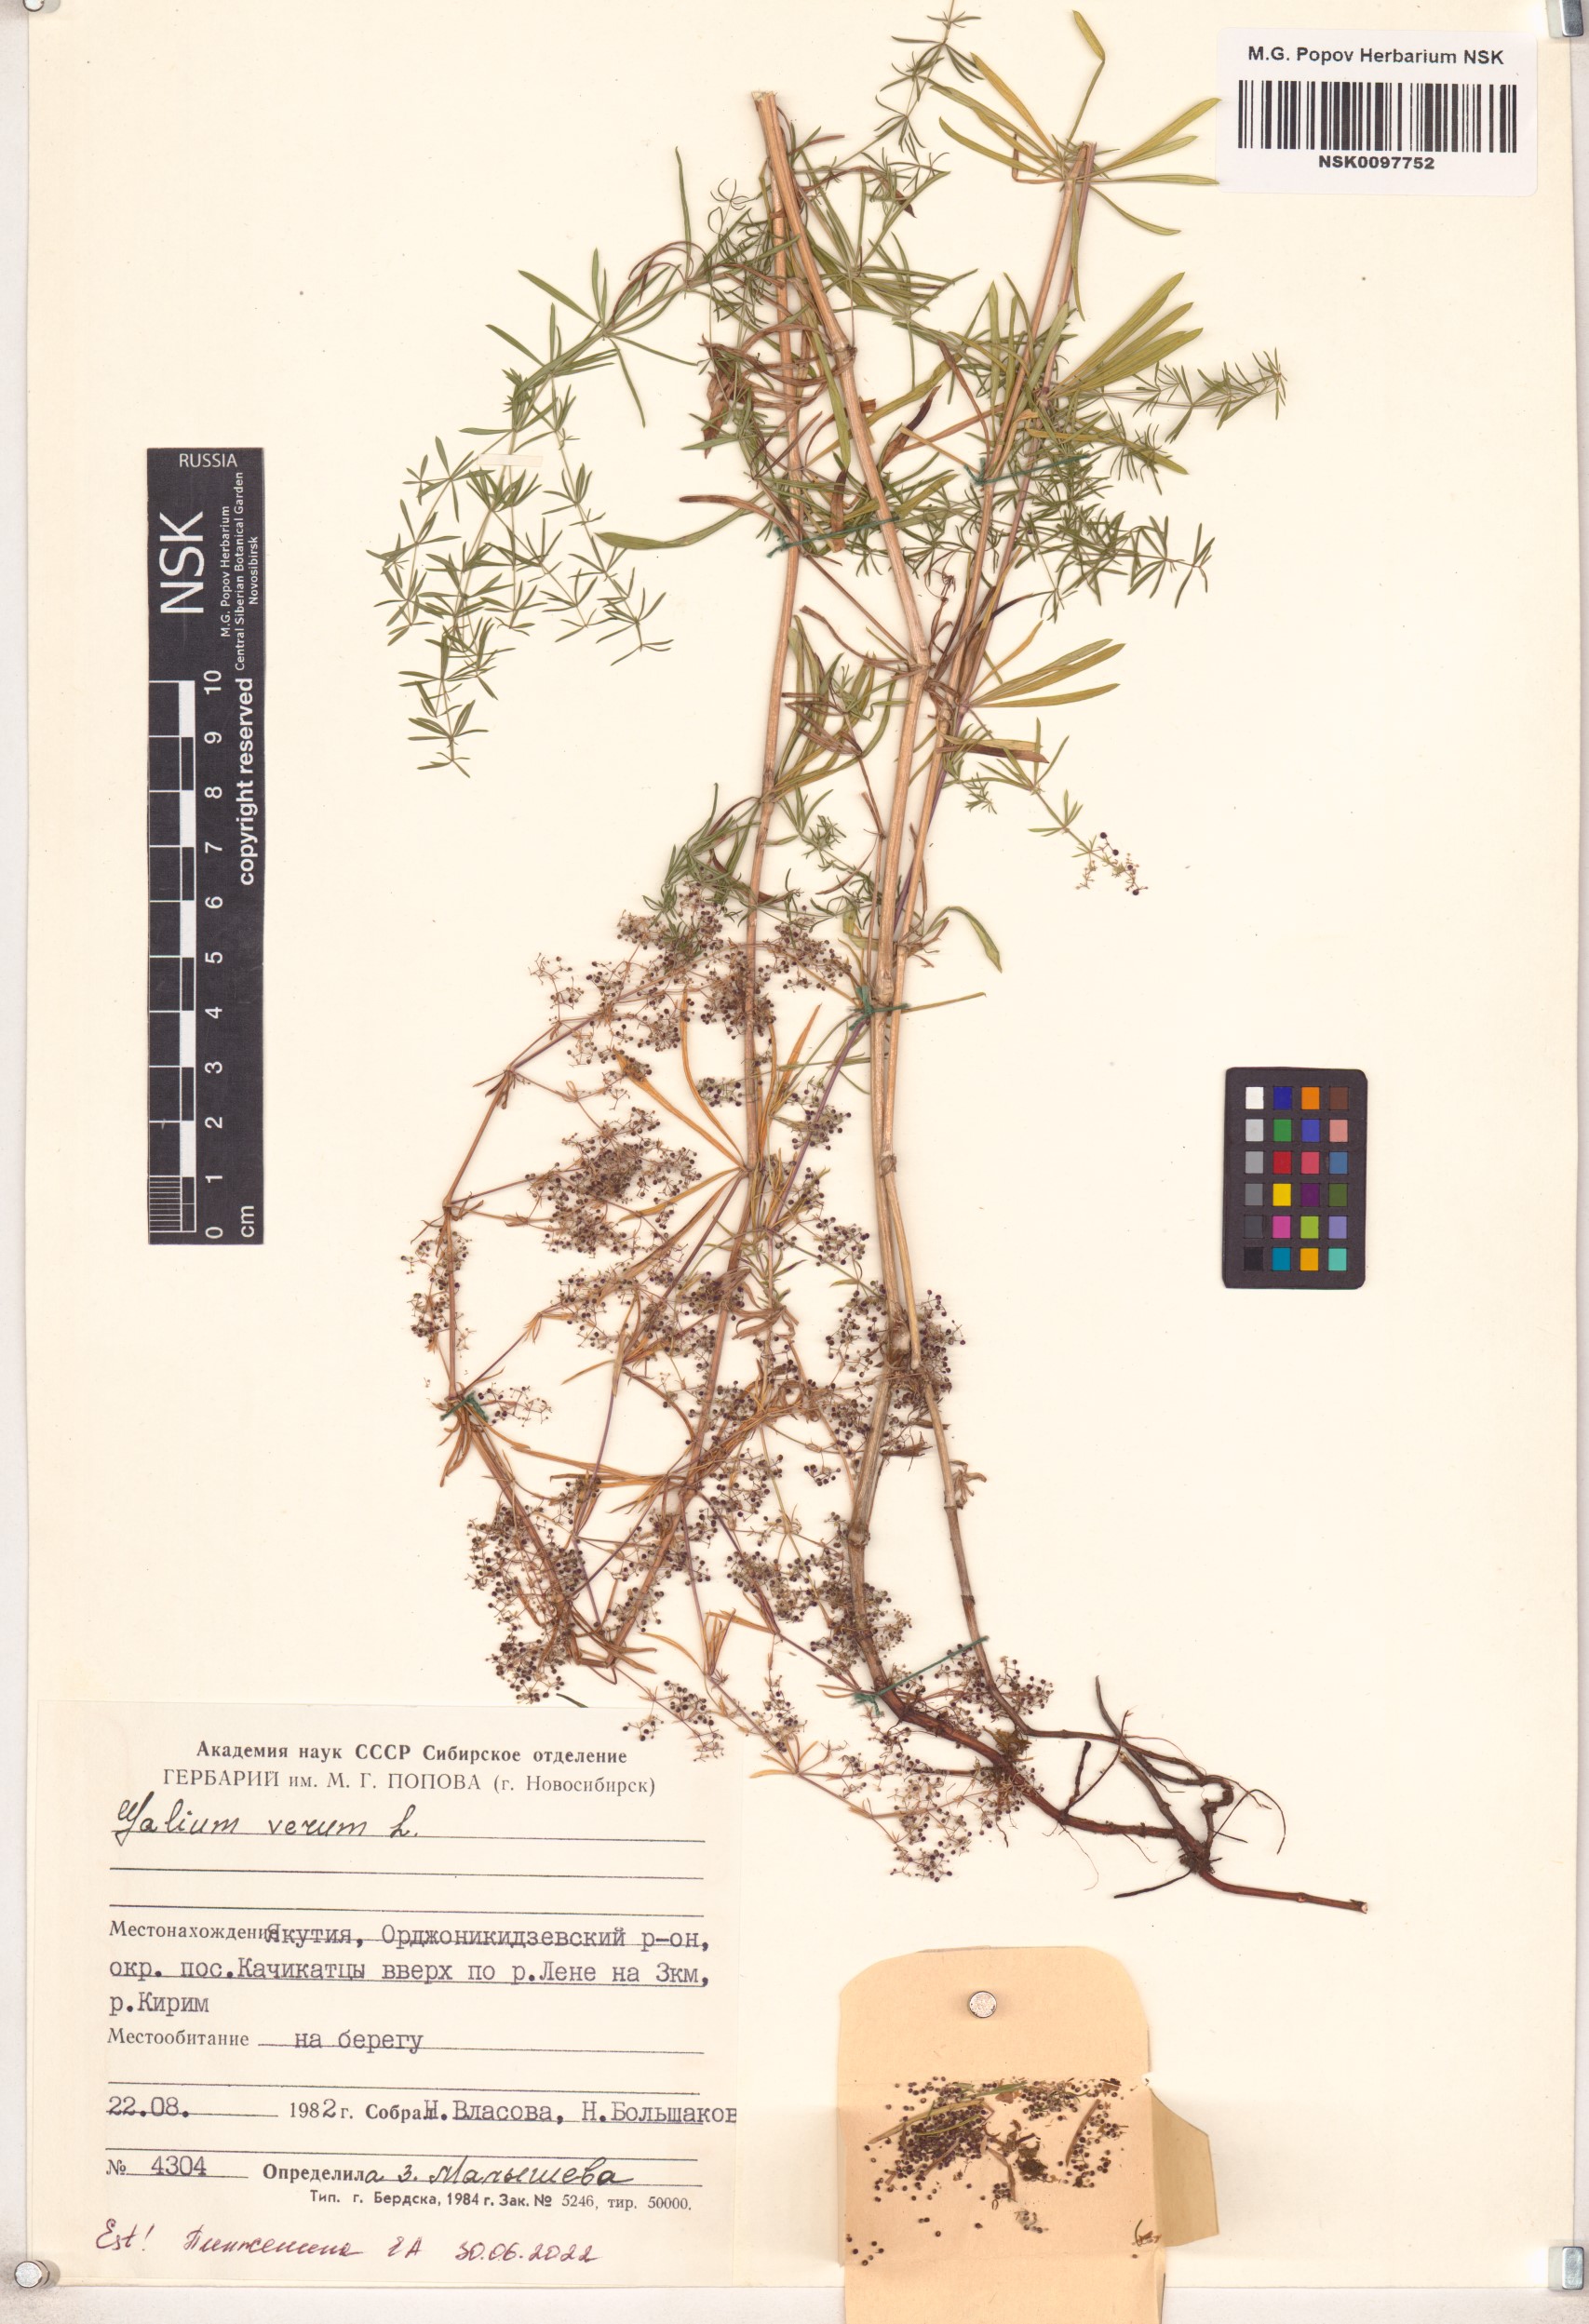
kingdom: Plantae
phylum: Tracheophyta
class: Magnoliopsida
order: Gentianales
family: Rubiaceae
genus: Galium
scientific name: Galium verum
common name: Lady's bedstraw
